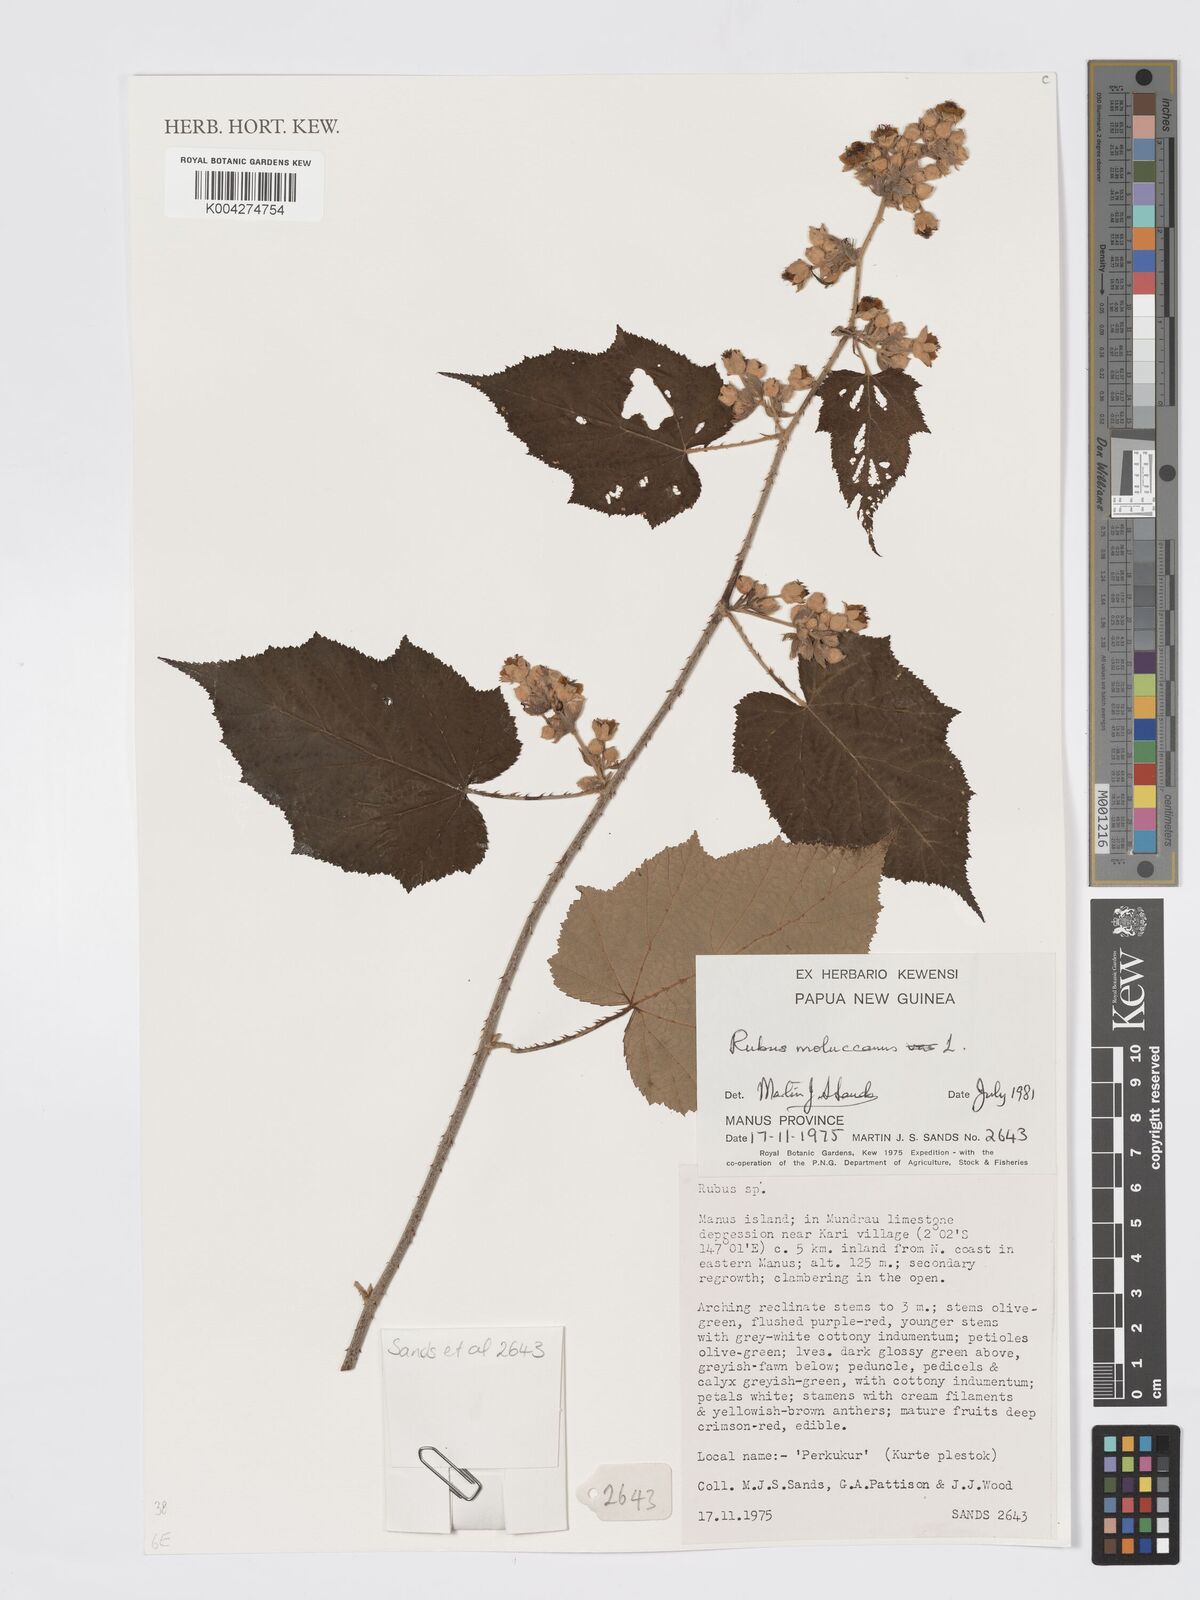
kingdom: Plantae
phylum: Tracheophyta
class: Magnoliopsida
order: Rosales
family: Rosaceae
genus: Rubus
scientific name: Rubus moluccanus
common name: Wild raspberry
